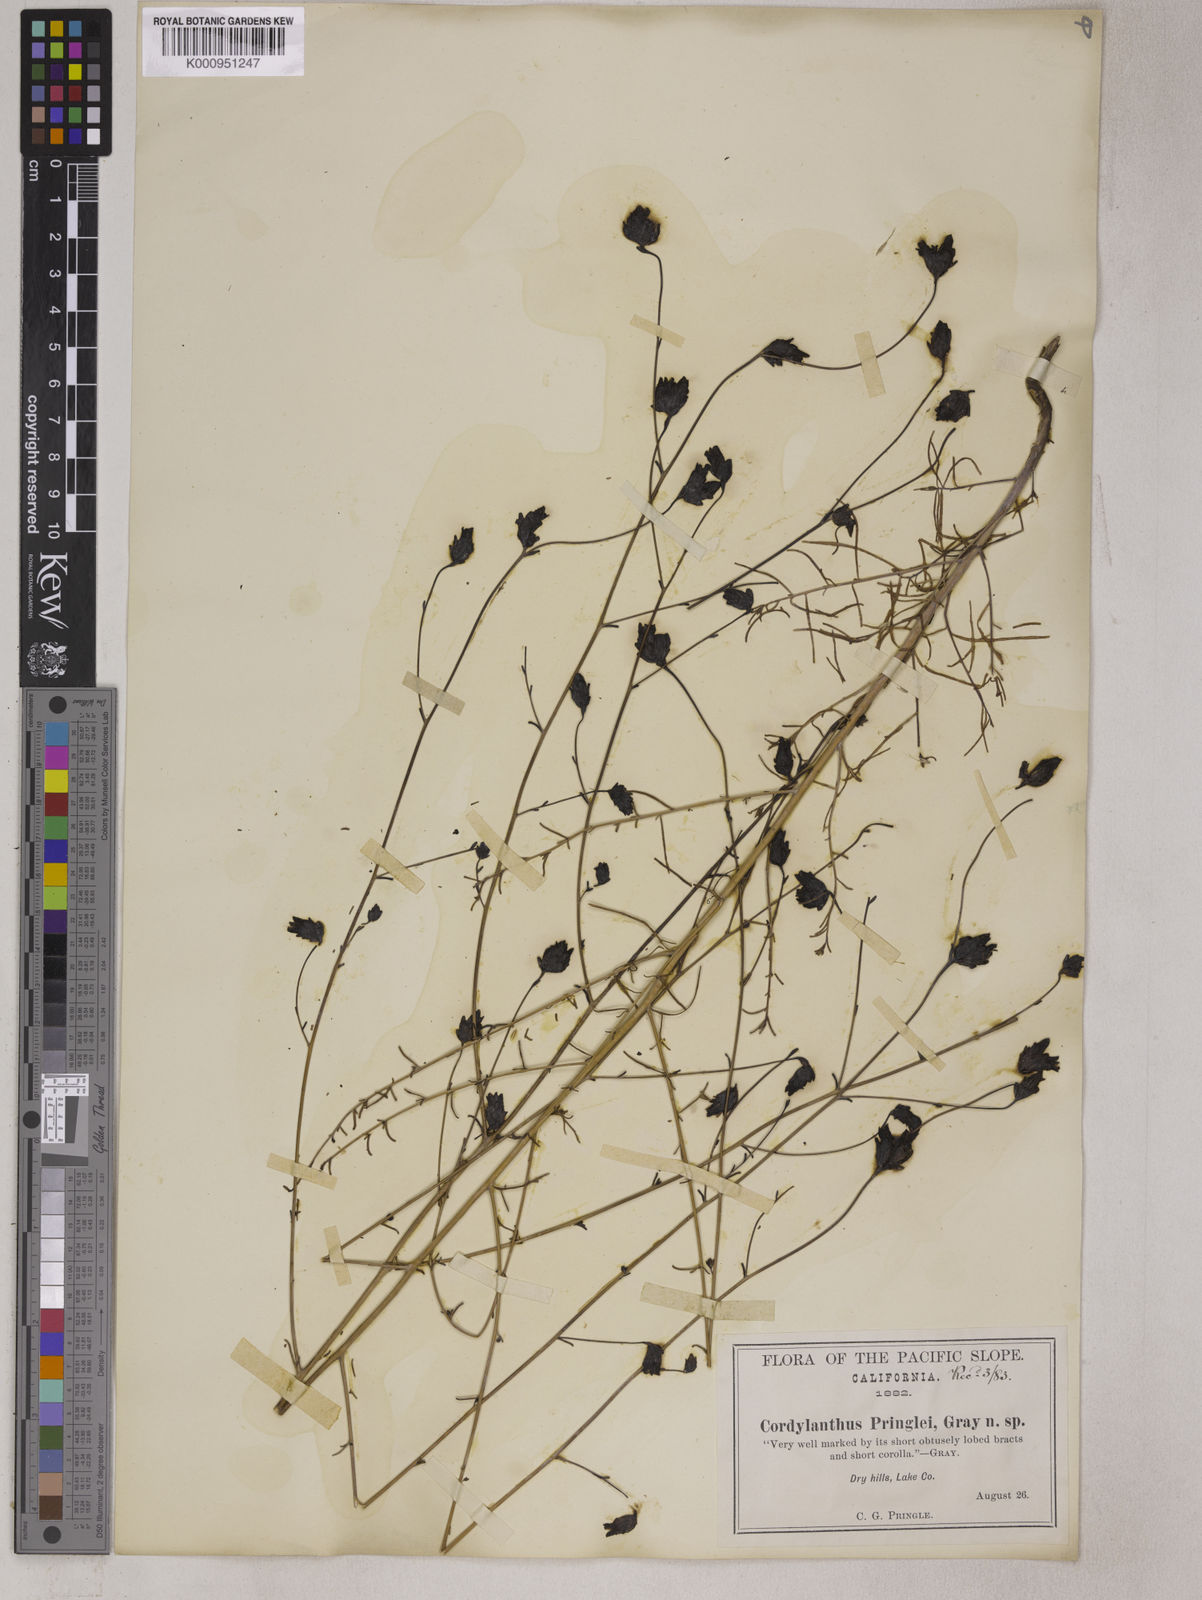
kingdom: Plantae
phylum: Tracheophyta
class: Magnoliopsida
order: Lamiales
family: Orobanchaceae
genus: Cordylanthus
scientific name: Cordylanthus pringlei
